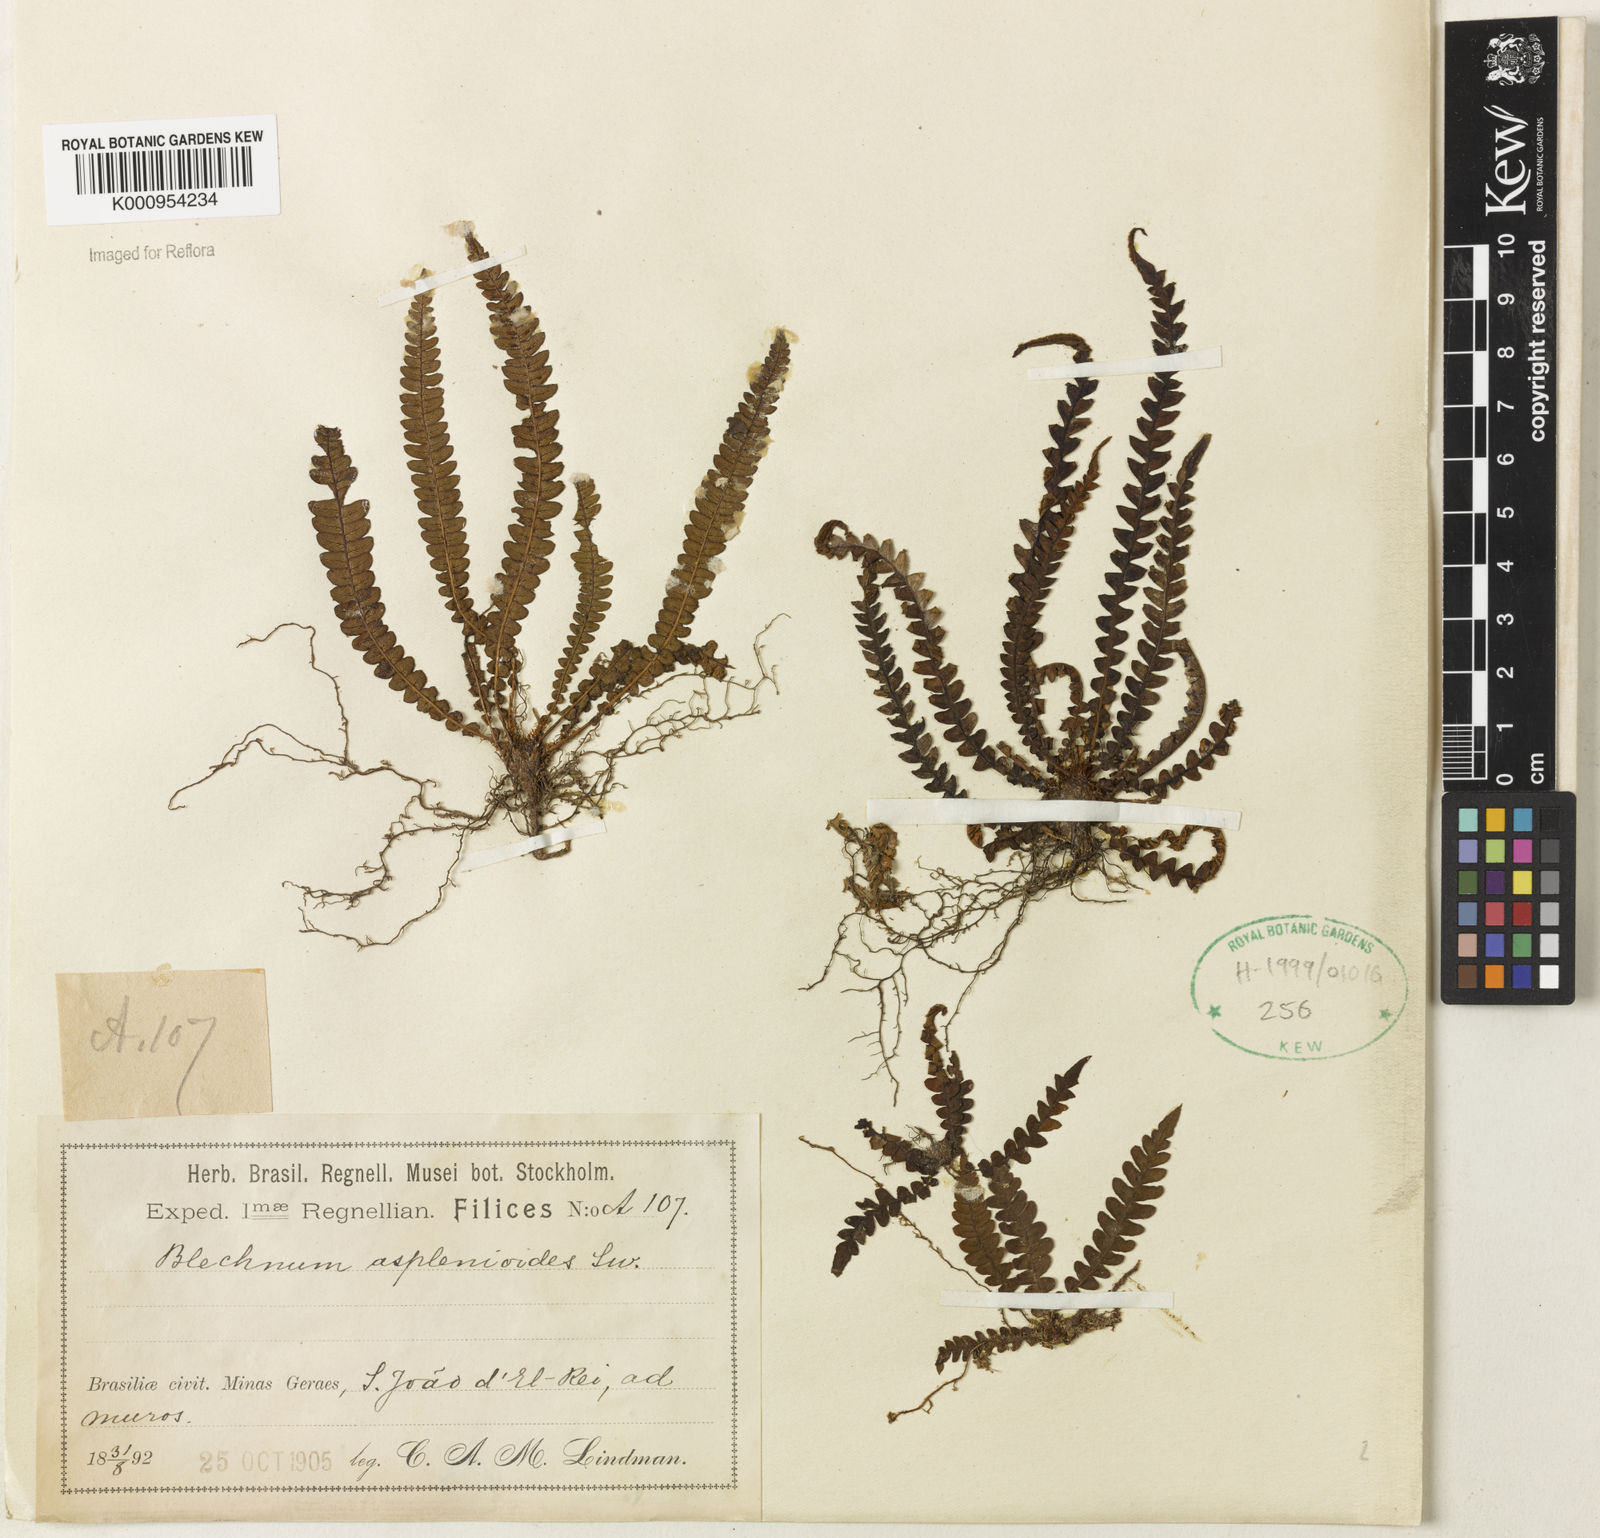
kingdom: Plantae
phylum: Tracheophyta
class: Polypodiopsida
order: Polypodiales
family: Blechnaceae
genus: Blechnum
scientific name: Blechnum asplenioides
